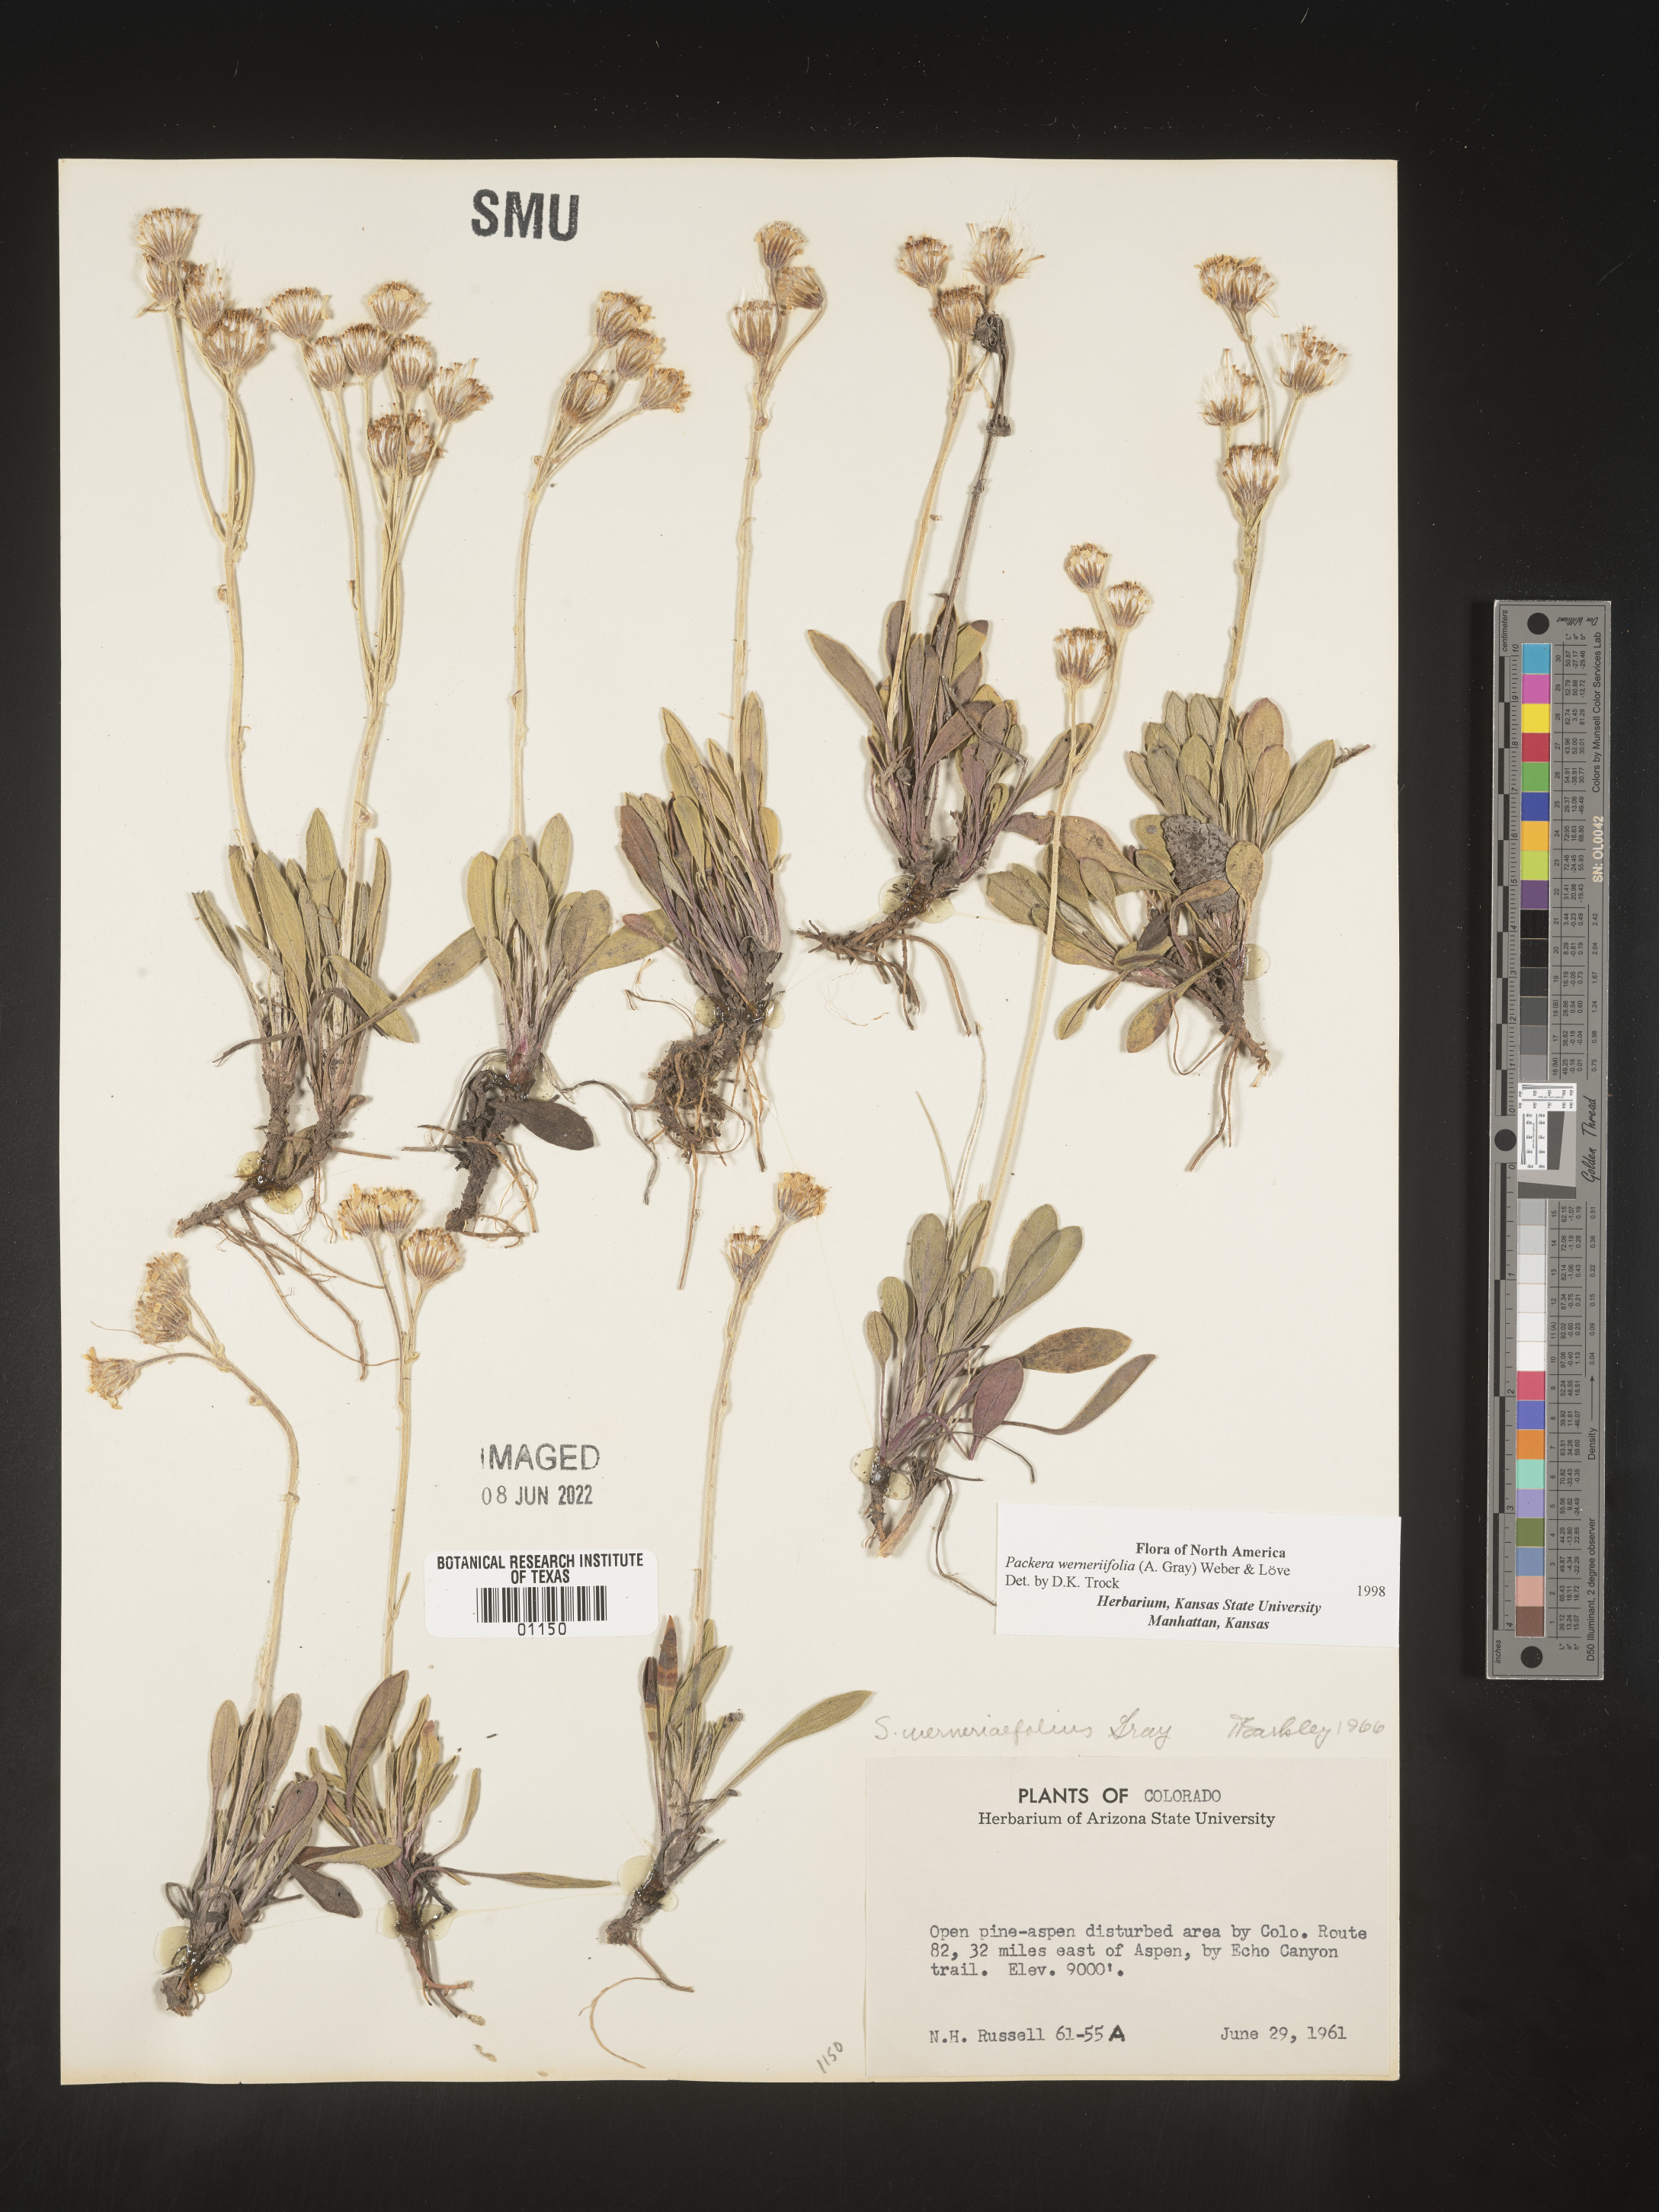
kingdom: Plantae
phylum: Tracheophyta
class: Magnoliopsida
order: Asterales
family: Asteraceae
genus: Packera
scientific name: Packera werneriifolia
